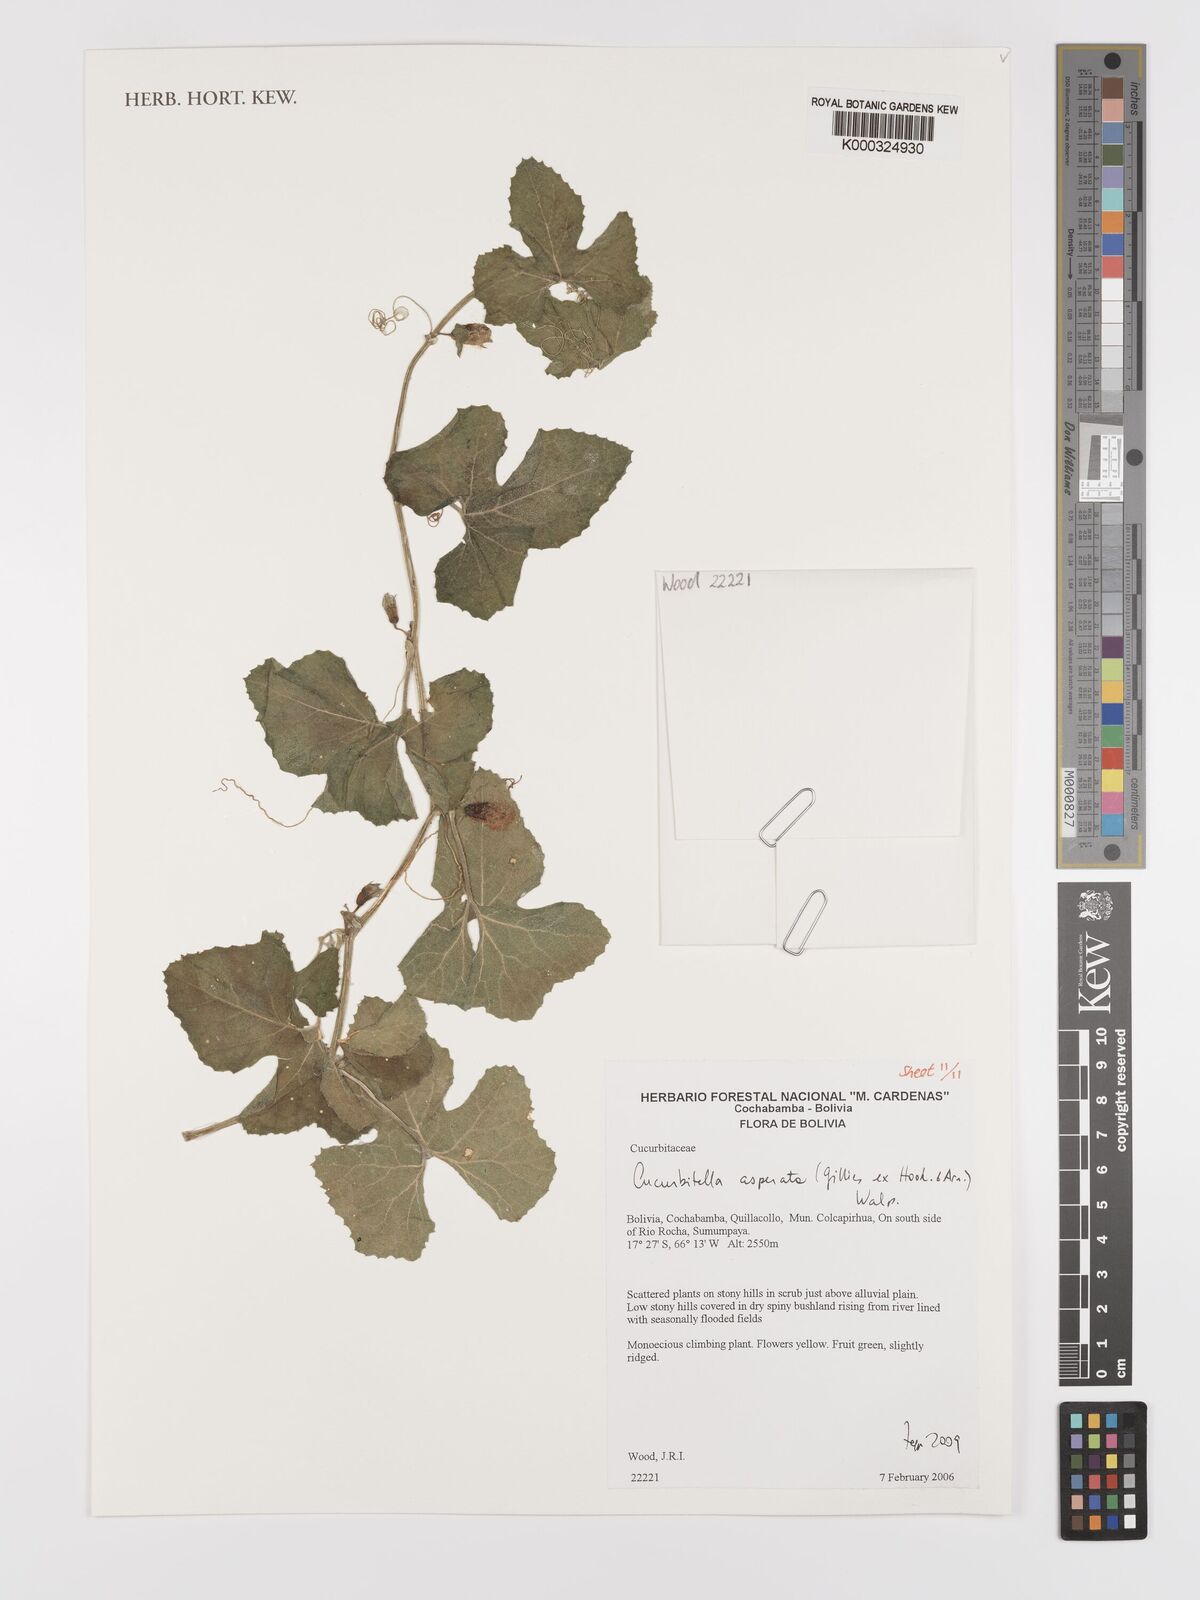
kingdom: Plantae
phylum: Tracheophyta
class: Magnoliopsida
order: Cucurbitales
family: Cucurbitaceae
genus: Cucurbitella
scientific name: Cucurbitella asperata
